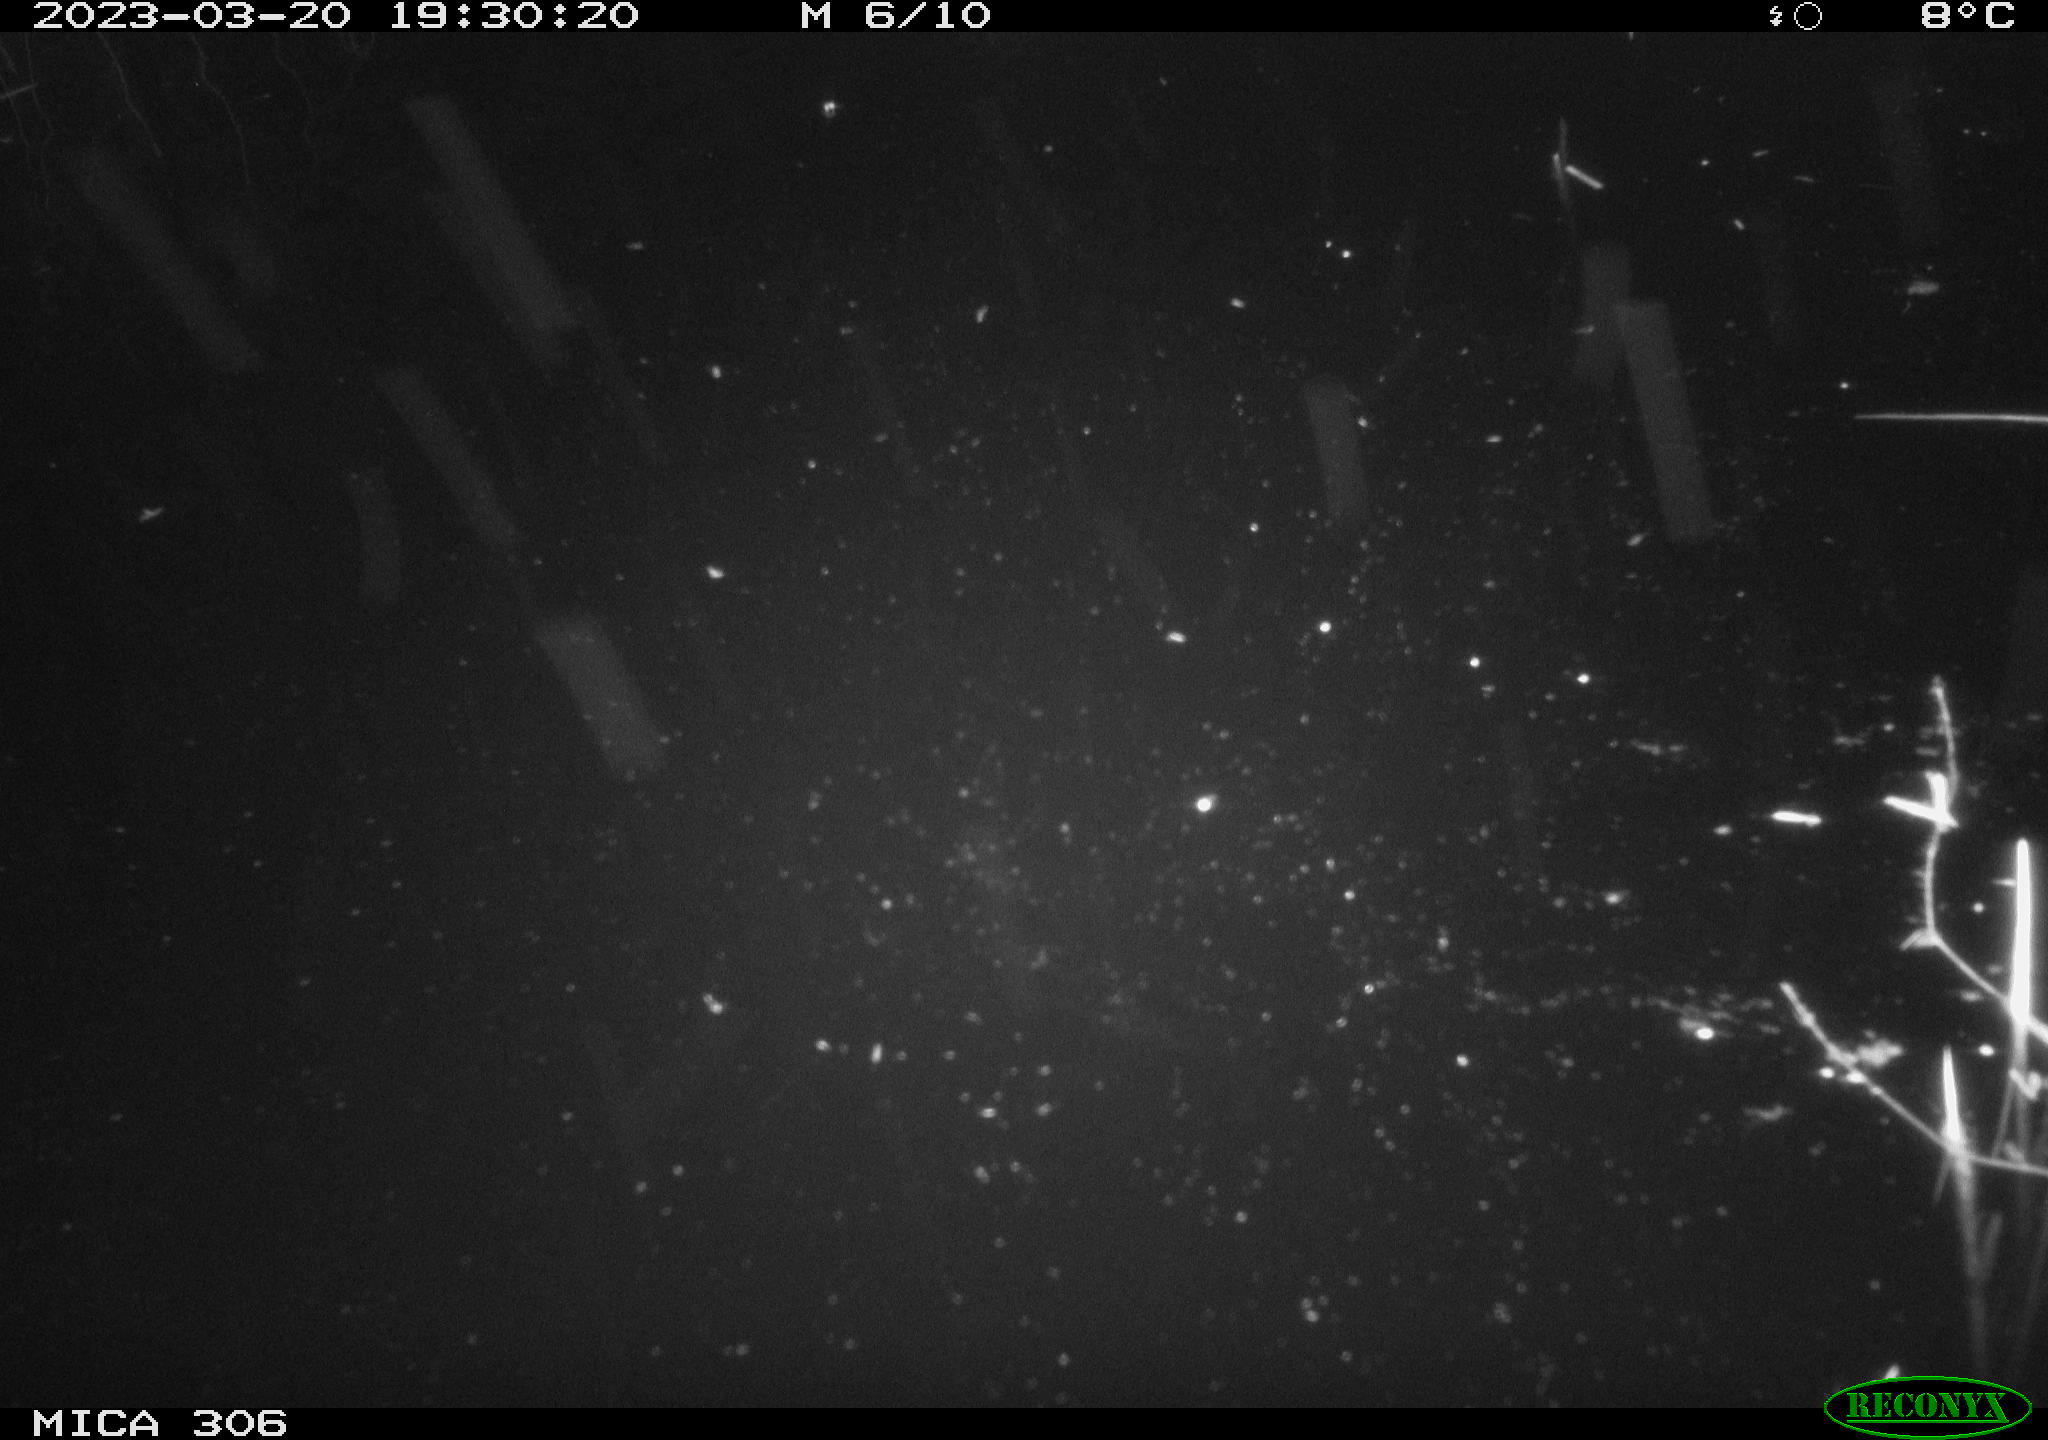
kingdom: Animalia
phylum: Chordata
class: Aves
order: Pelecaniformes
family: Ardeidae
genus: Ardea
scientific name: Ardea cinerea
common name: Grey heron
